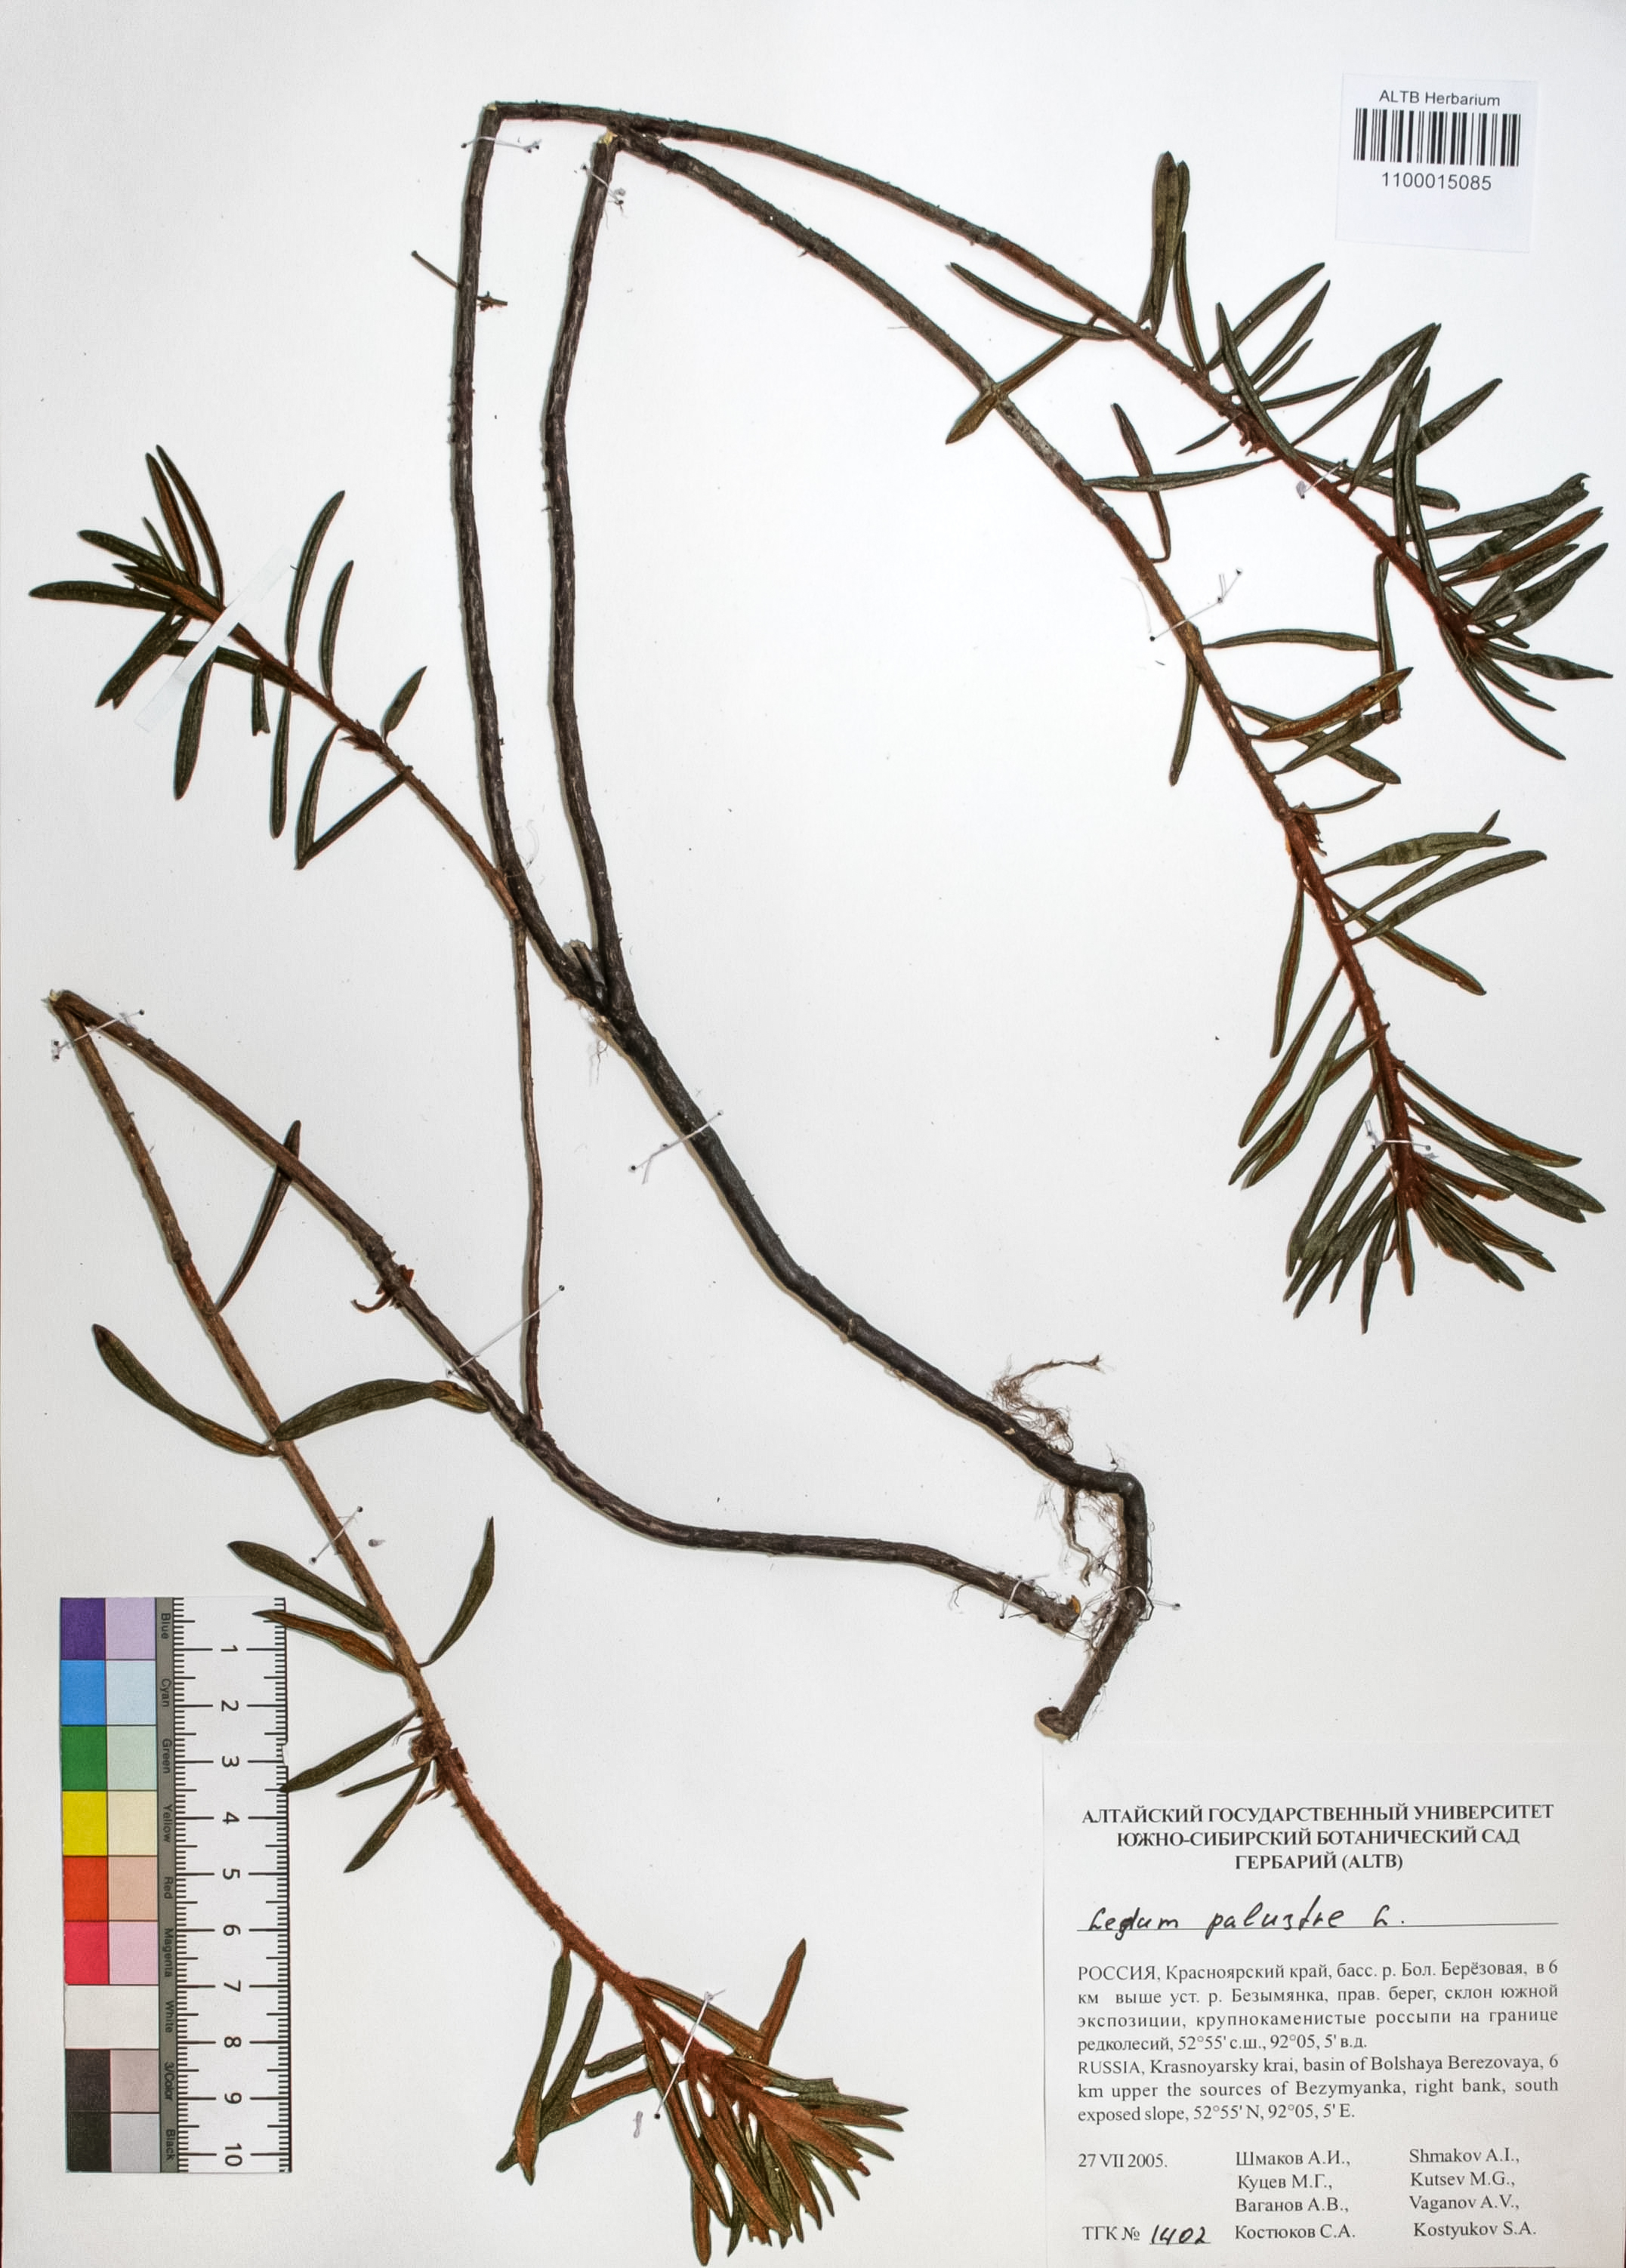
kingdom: Plantae
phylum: Tracheophyta
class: Magnoliopsida
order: Ericales
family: Ericaceae
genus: Rhododendron
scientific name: Rhododendron tomentosum
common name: Marsh labrador tea
